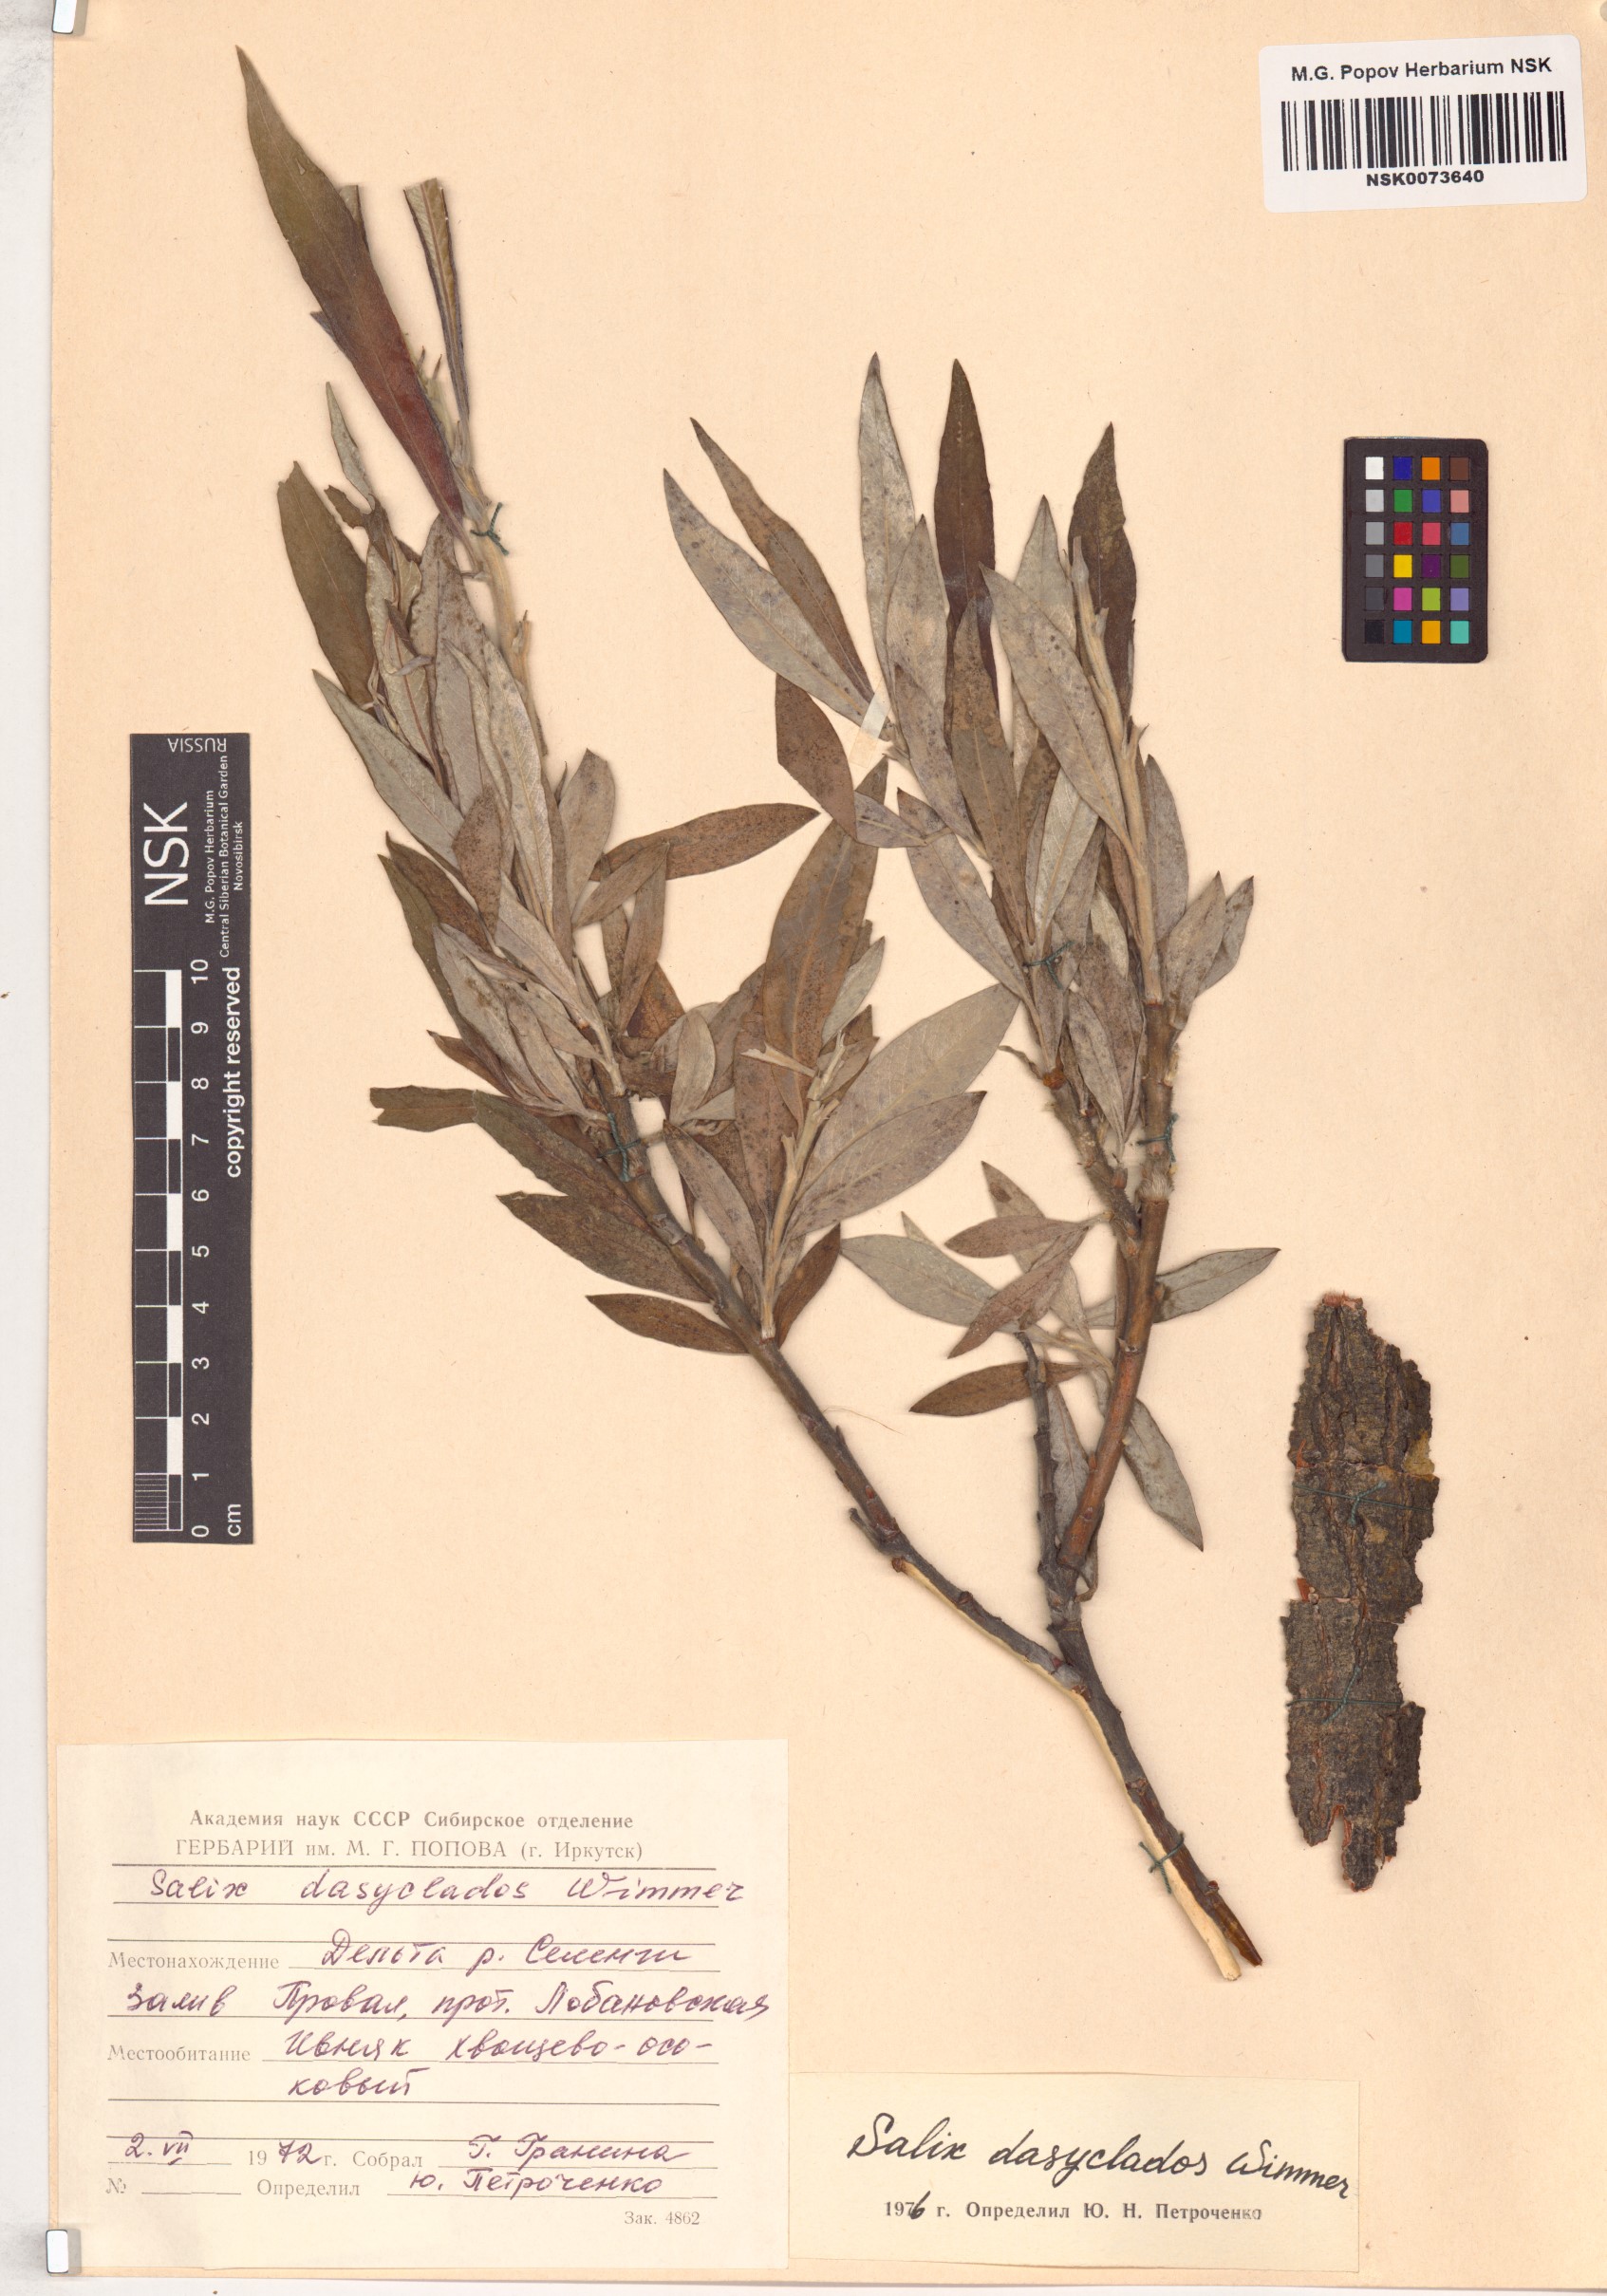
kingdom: Plantae
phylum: Tracheophyta
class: Magnoliopsida
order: Malpighiales
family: Salicaceae
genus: Salix
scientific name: Salix gmelinii
